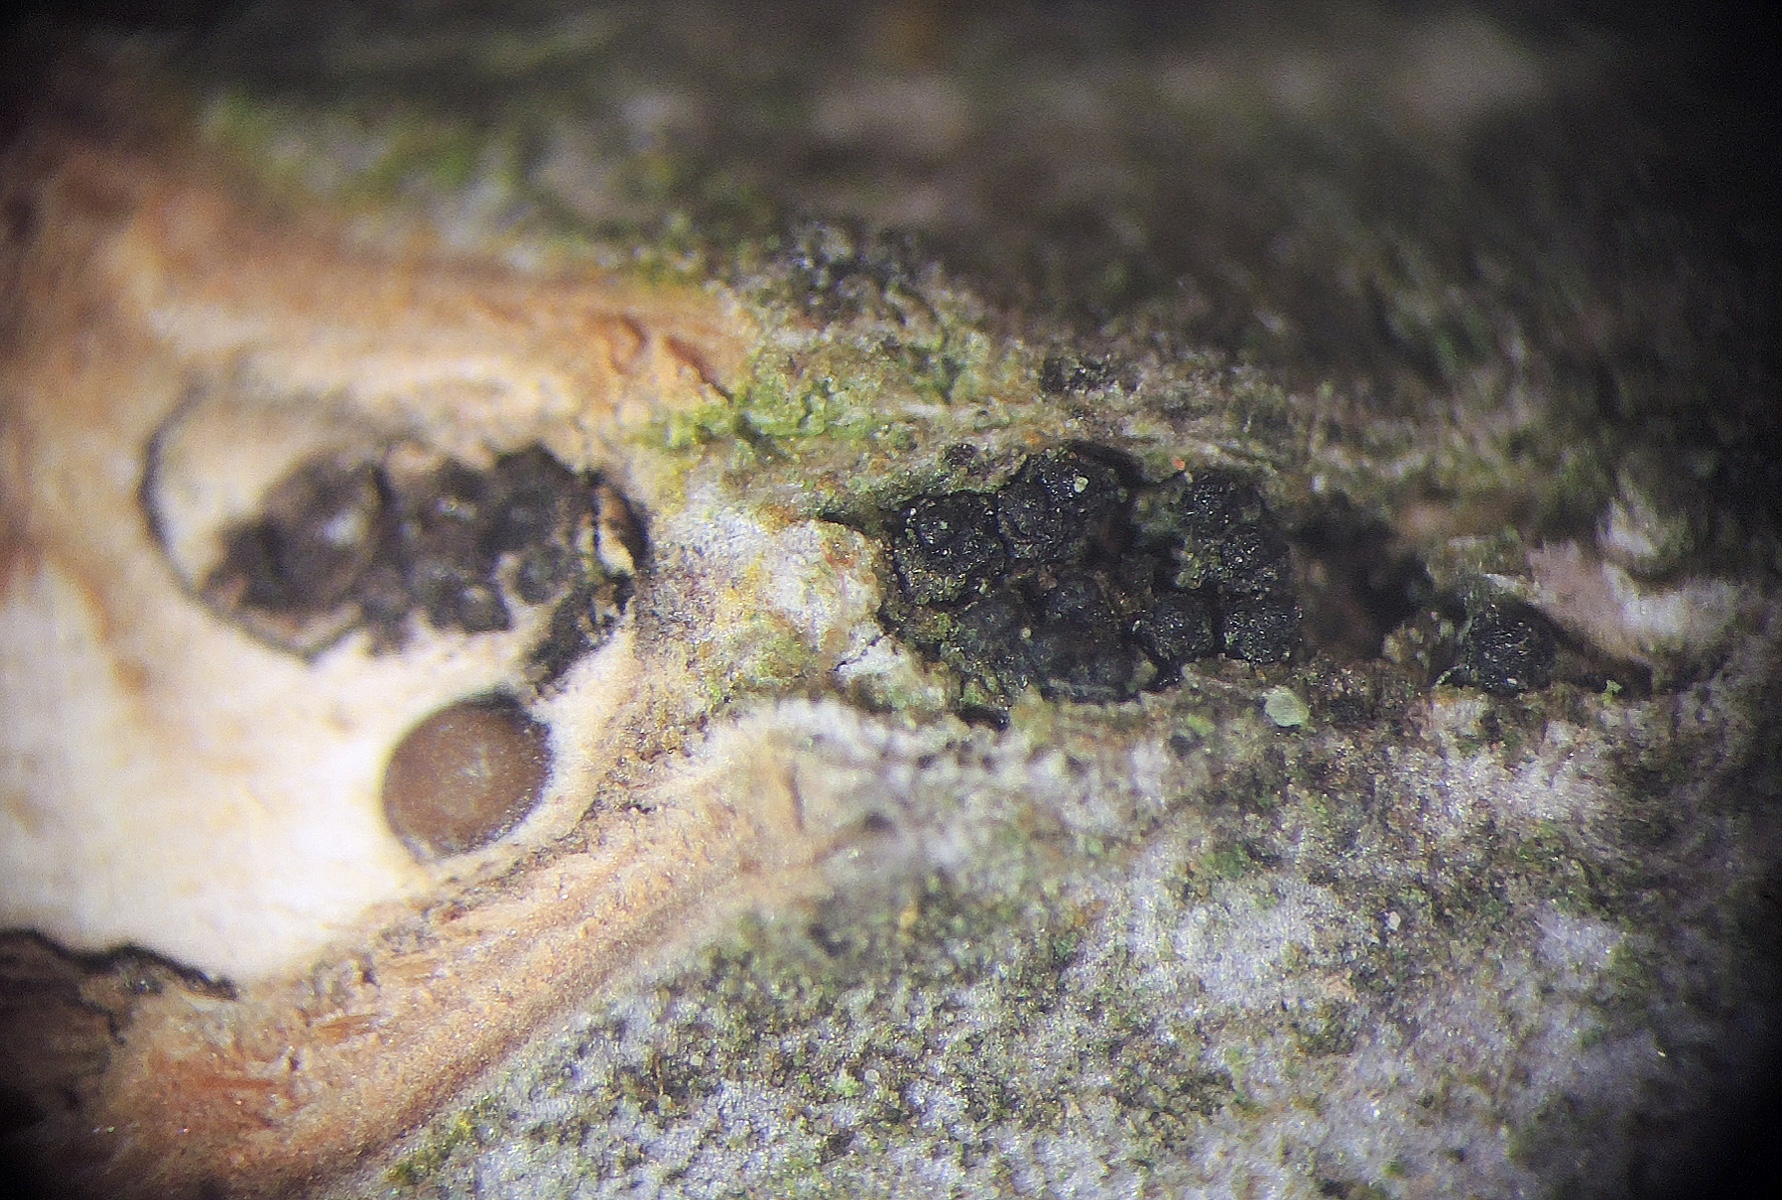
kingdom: Fungi
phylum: Ascomycota
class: Sordariomycetes
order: Diaporthales
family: Diaporthaceae
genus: Diaporthe
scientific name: Diaporthe oncostoma
